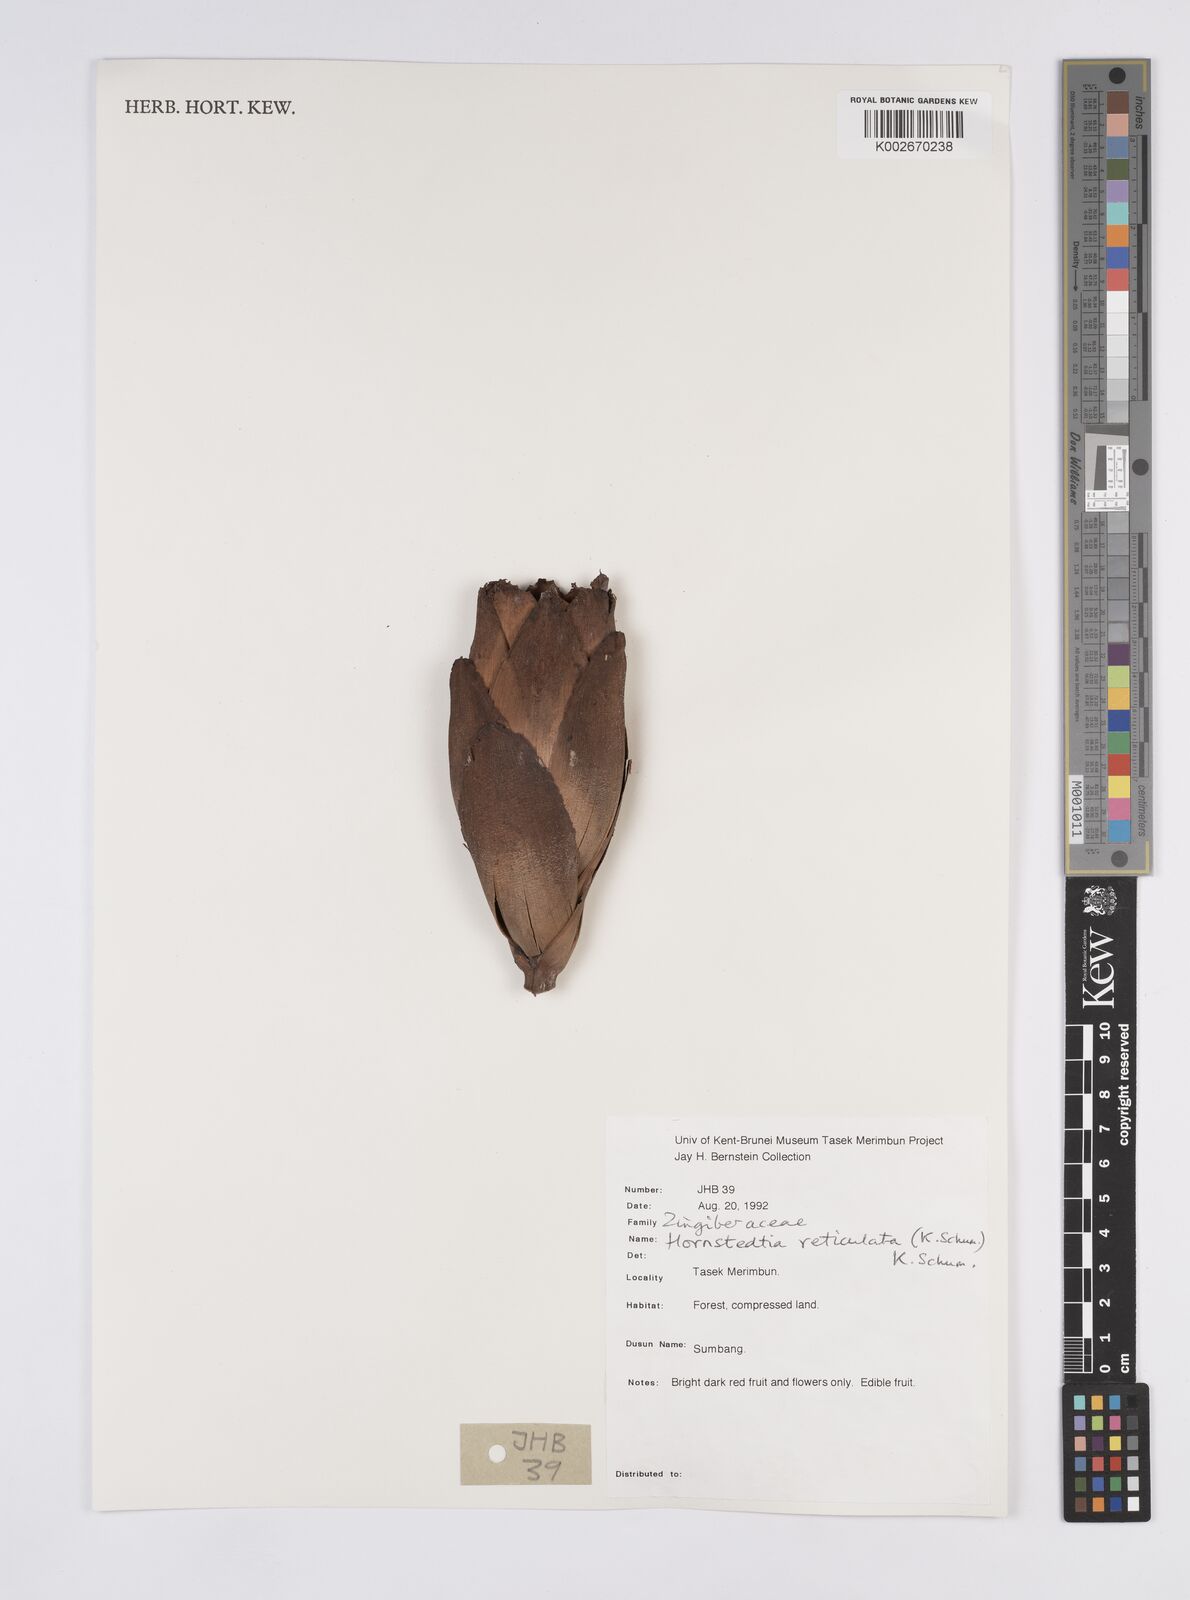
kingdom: Plantae
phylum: Tracheophyta
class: Liliopsida
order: Zingiberales
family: Zingiberaceae
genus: Hornstedtia
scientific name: Hornstedtia reticulata
